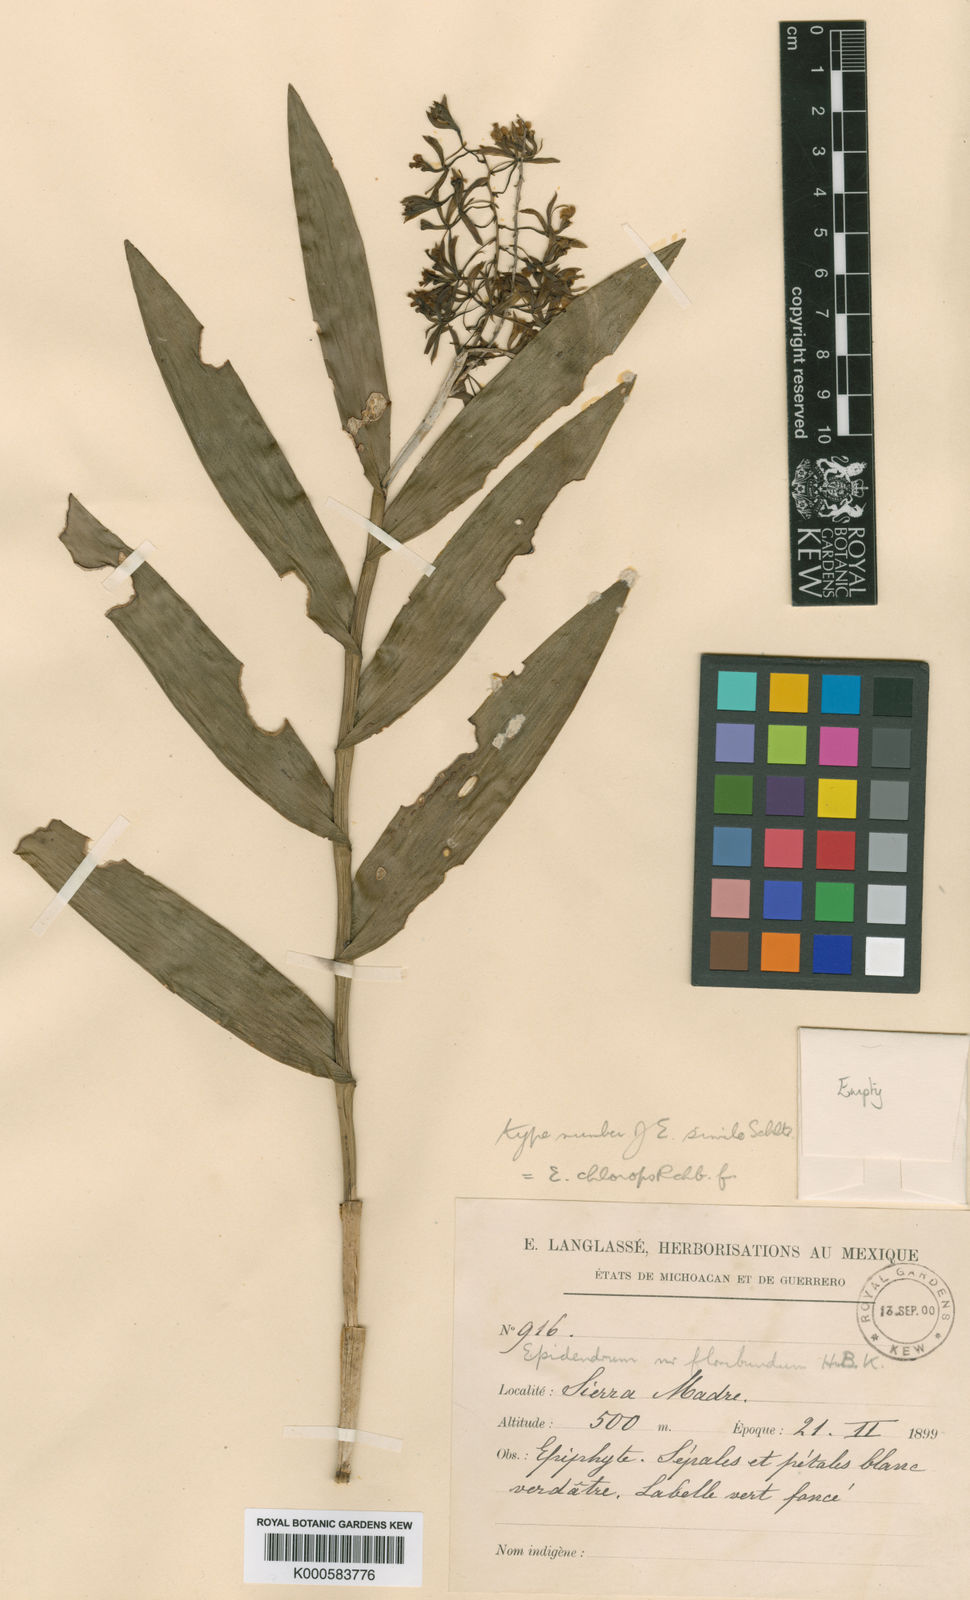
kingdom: Plantae
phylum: Tracheophyta
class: Liliopsida
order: Asparagales
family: Orchidaceae
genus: Epidendrum
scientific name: Epidendrum chlorops
